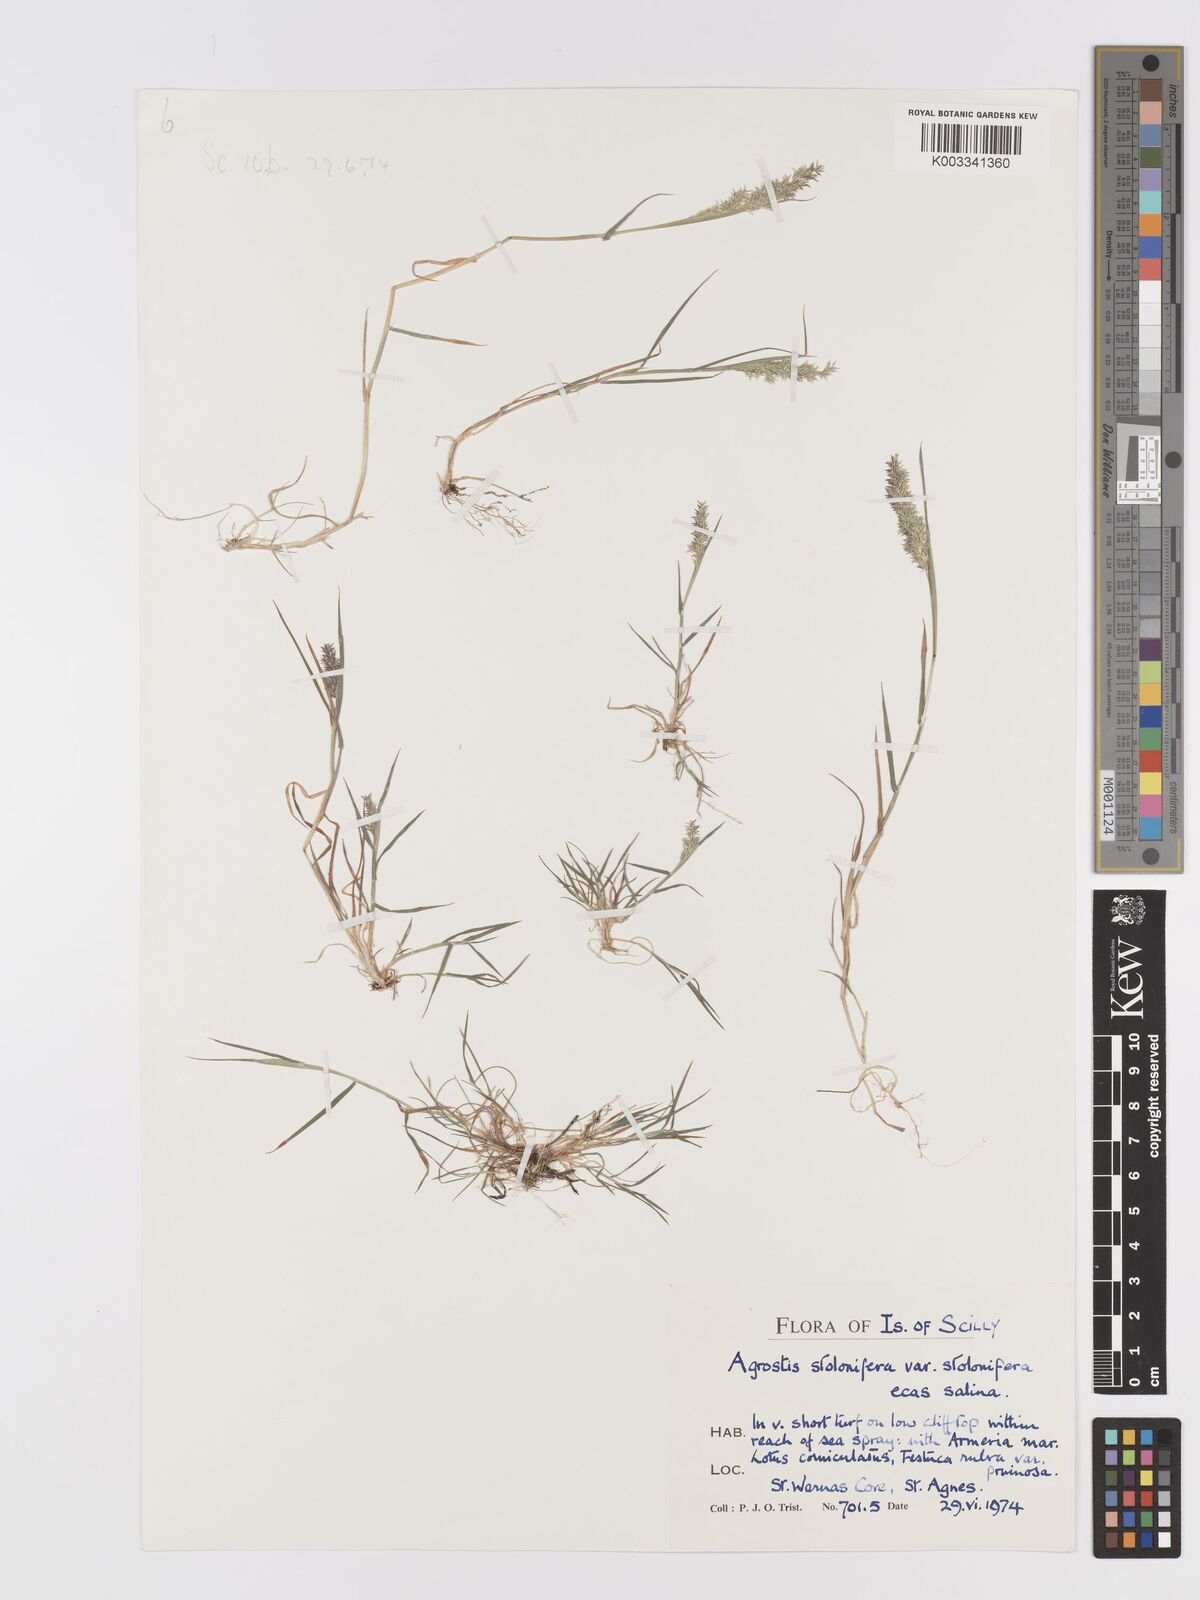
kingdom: Plantae
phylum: Tracheophyta
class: Liliopsida
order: Poales
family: Poaceae
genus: Agrostis
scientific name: Agrostis stolonifera
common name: Creeping bentgrass
